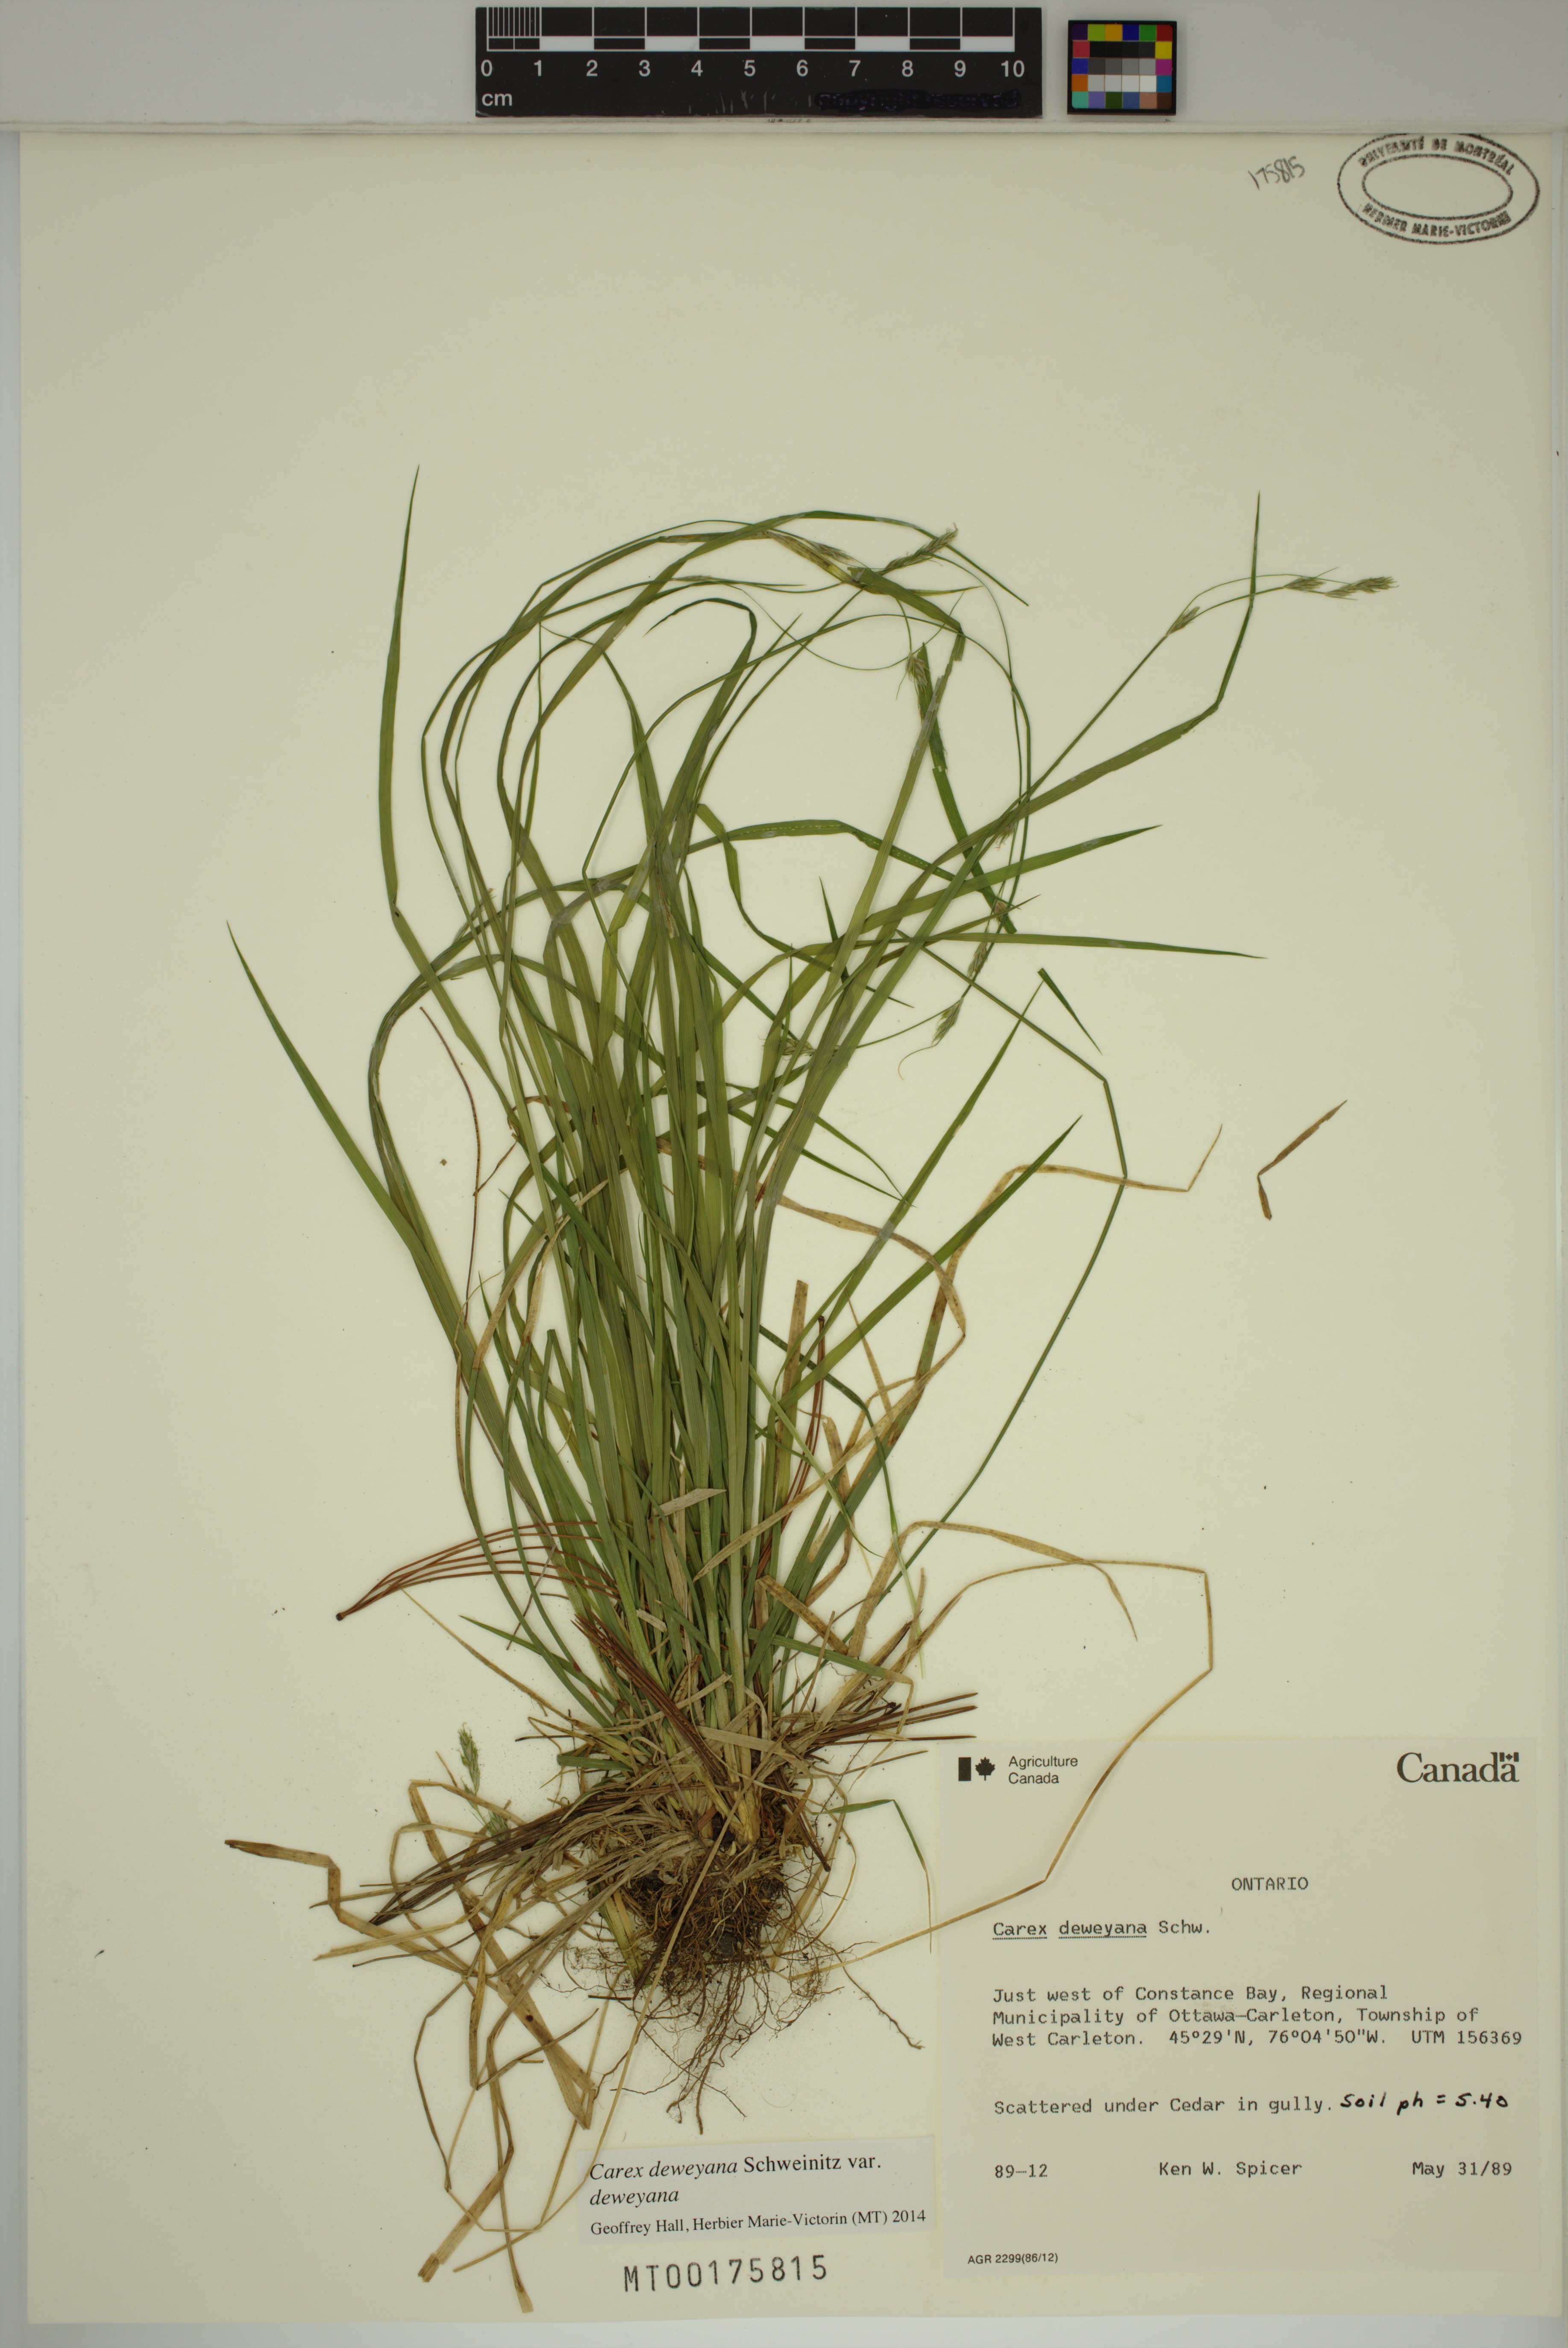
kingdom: Plantae
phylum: Tracheophyta
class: Liliopsida
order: Poales
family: Cyperaceae
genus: Carex
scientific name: Carex deweyana
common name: Dewey's sedge
